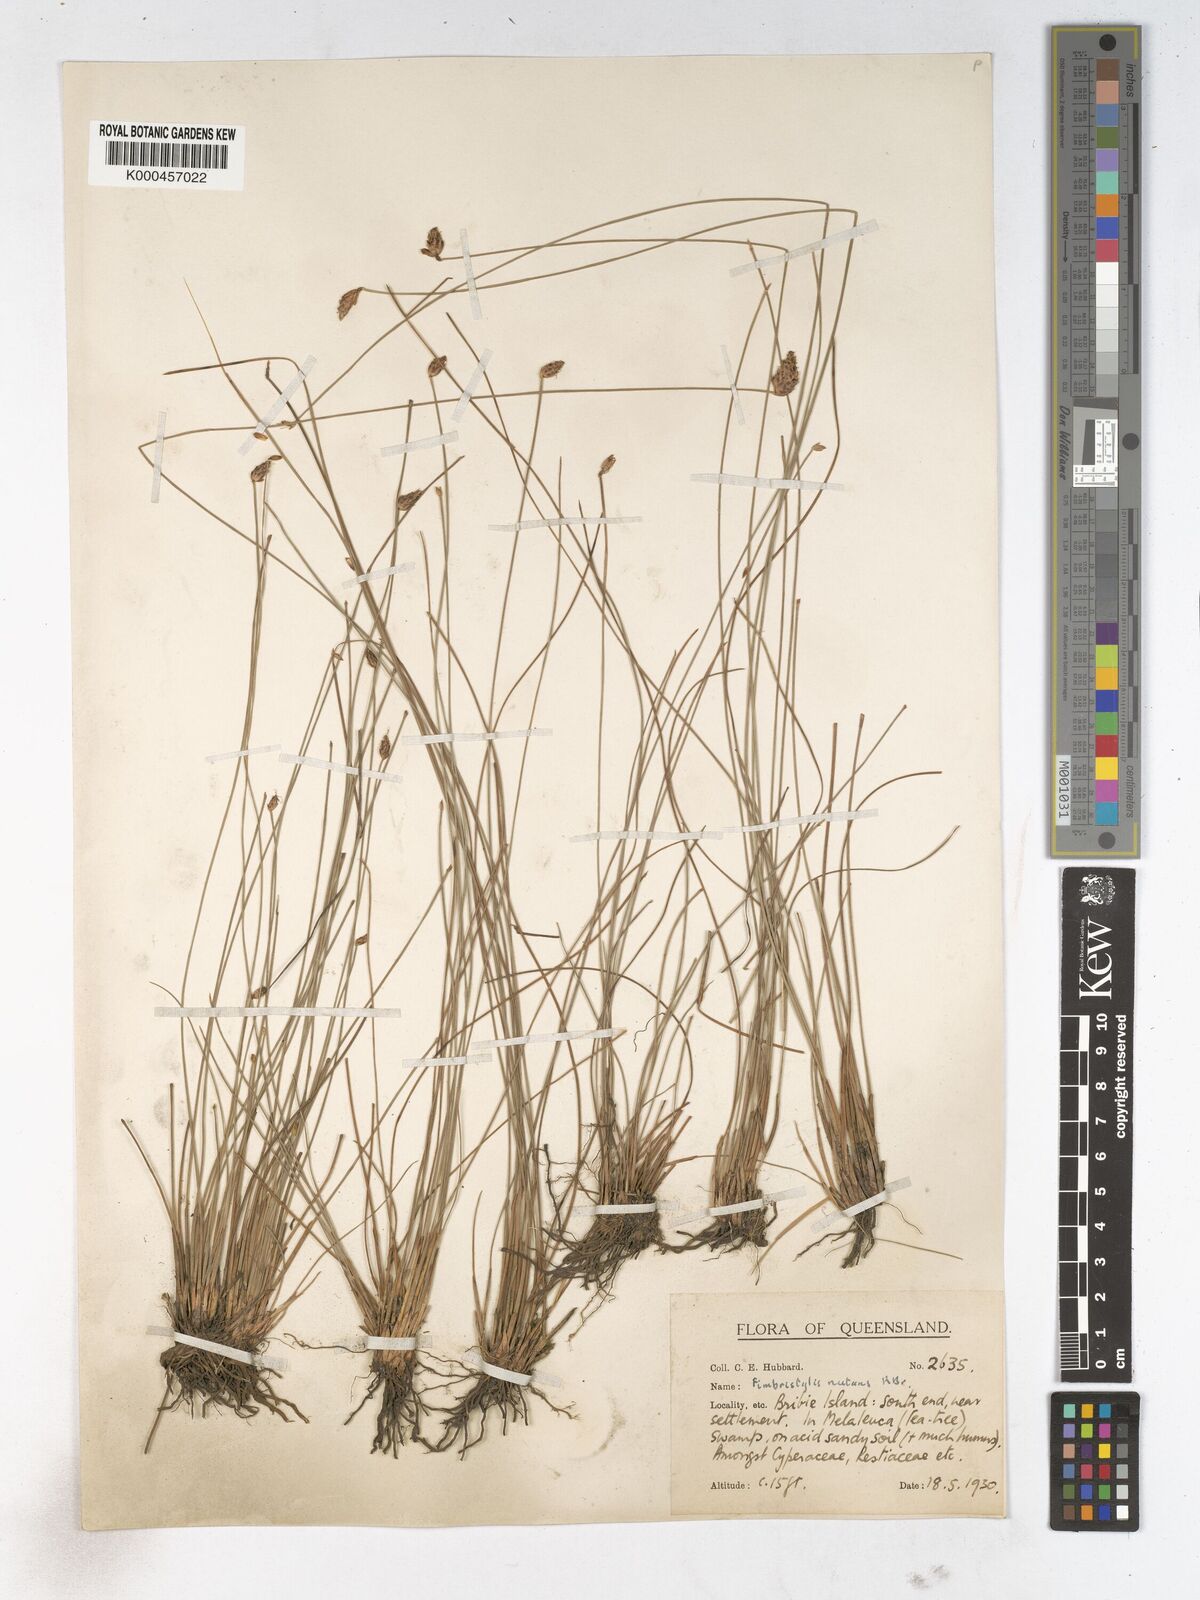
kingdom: Plantae
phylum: Tracheophyta
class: Liliopsida
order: Poales
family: Cyperaceae
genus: Fimbristylis
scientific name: Fimbristylis nutans
